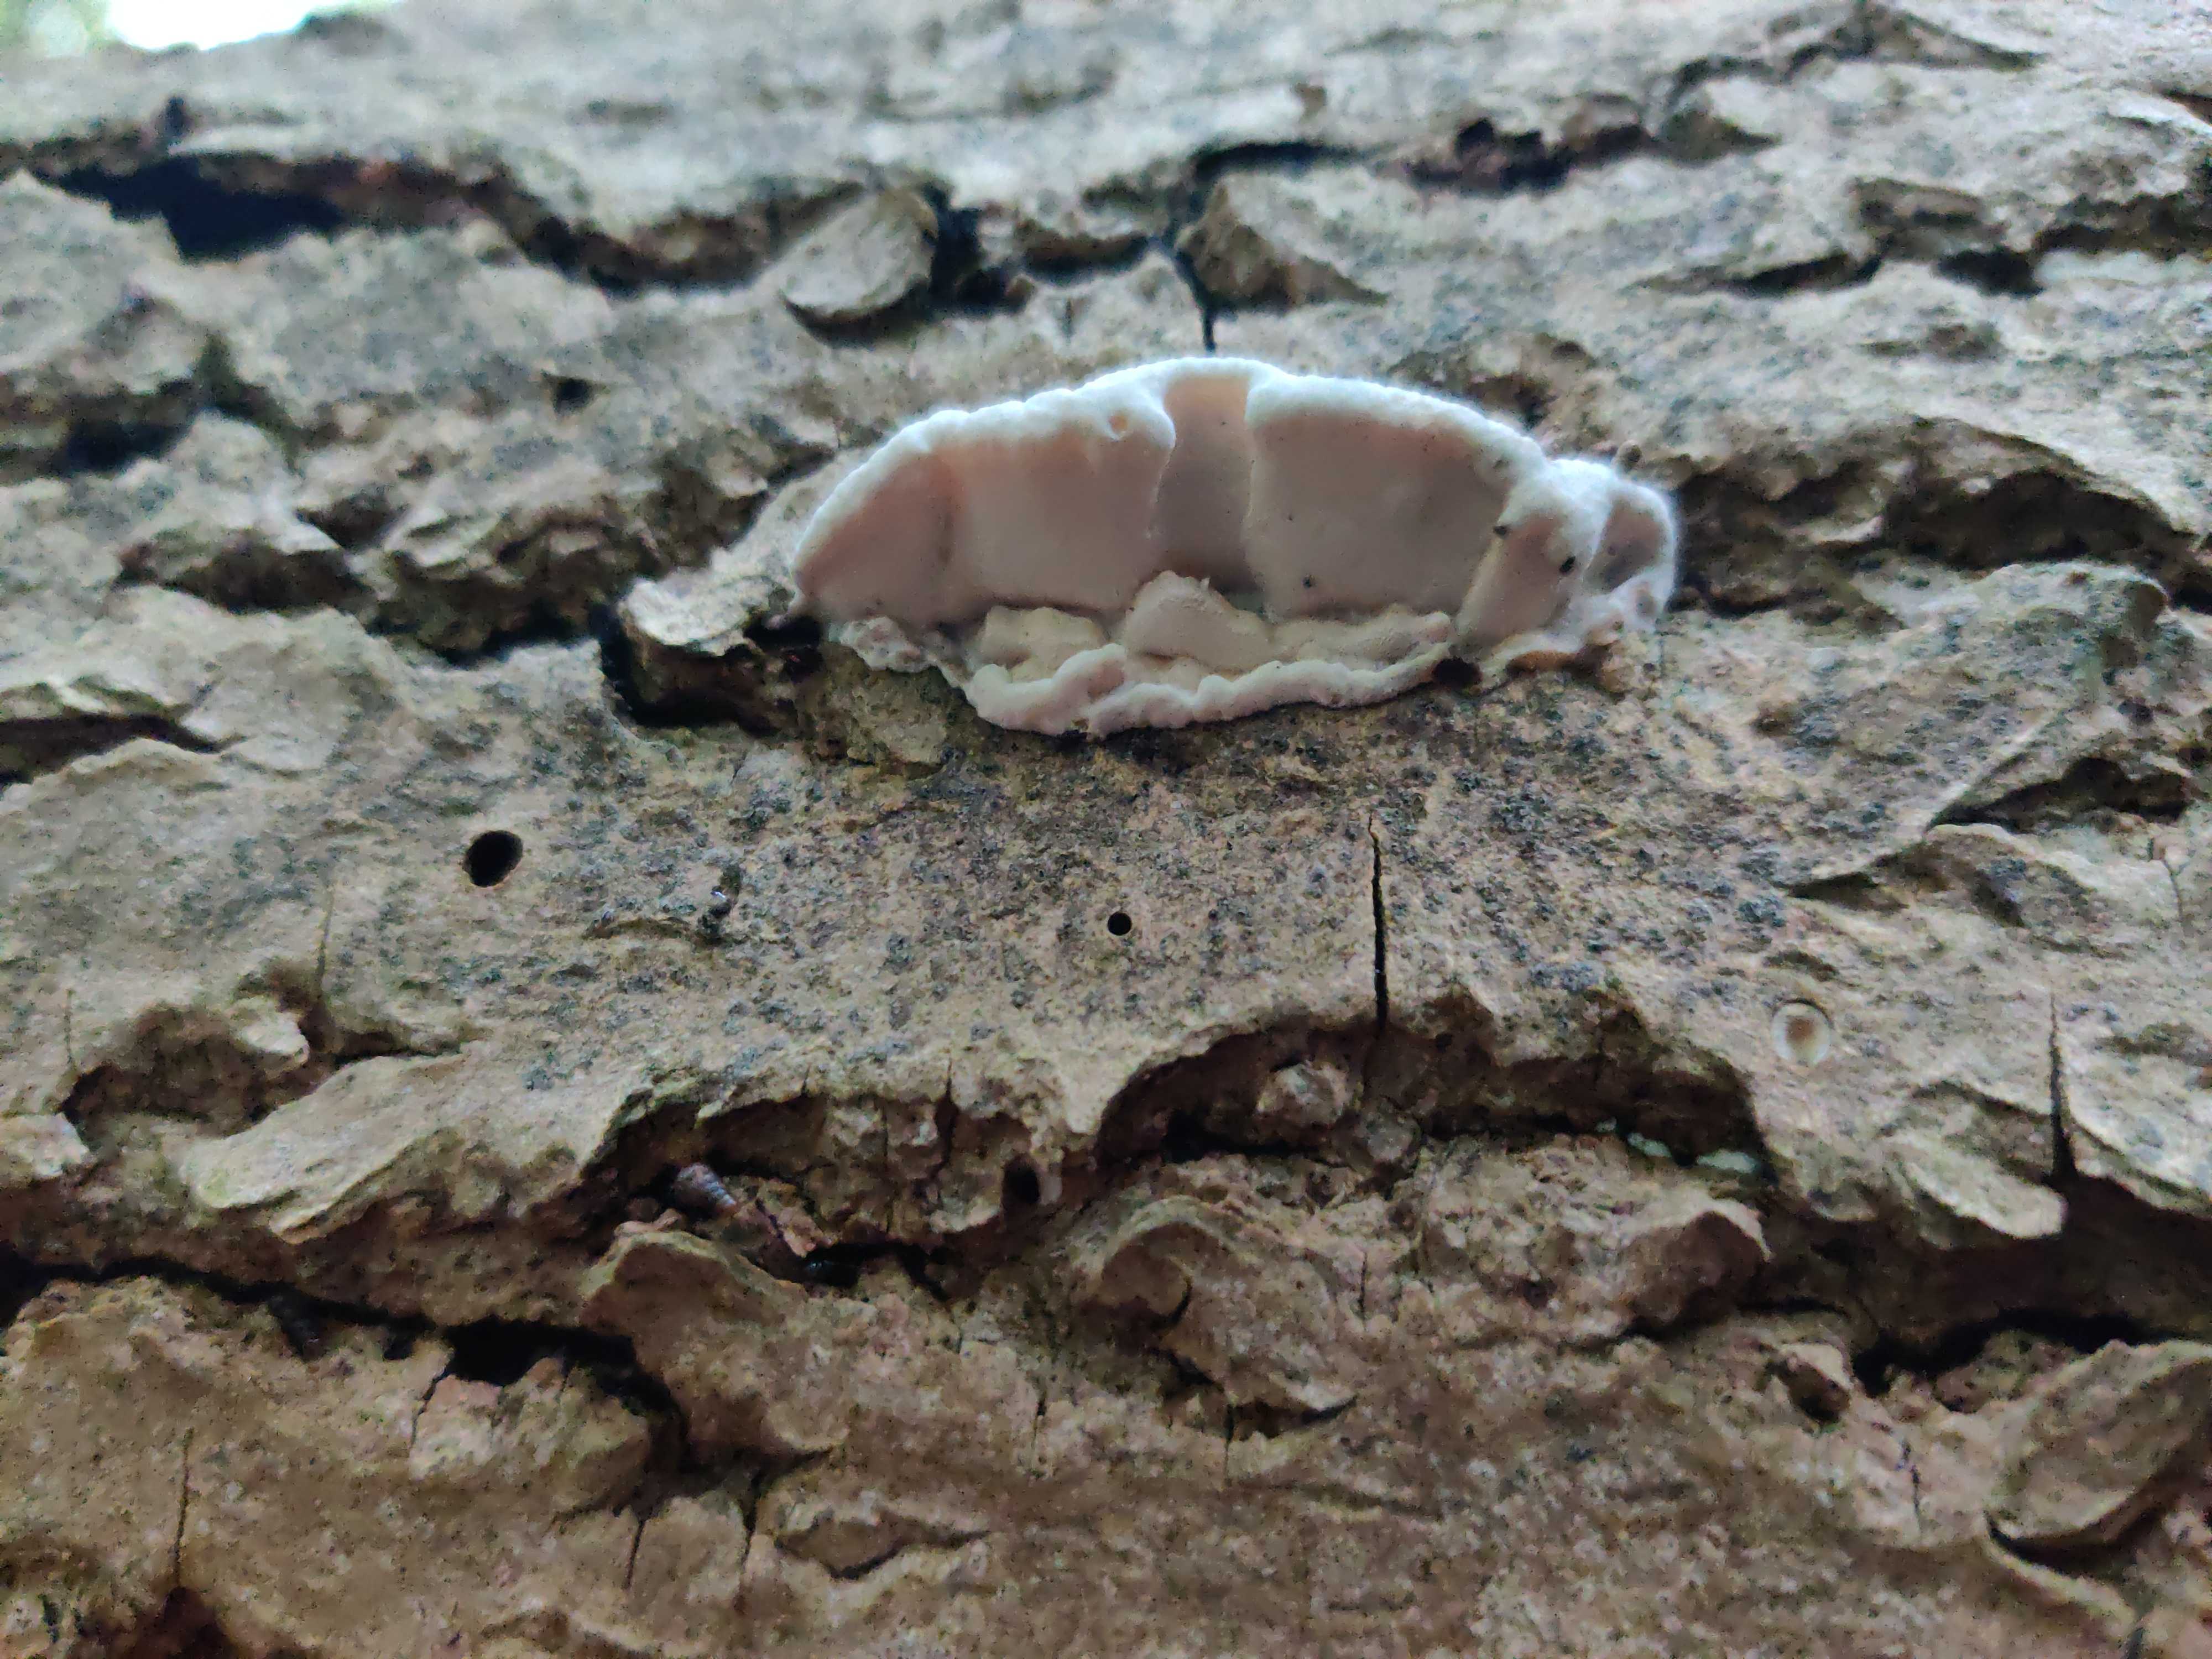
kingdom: Fungi
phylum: Basidiomycota
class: Agaricomycetes
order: Polyporales
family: Incrustoporiaceae
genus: Skeletocutis
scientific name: Skeletocutis nemoralis
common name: stor krystalporesvamp
